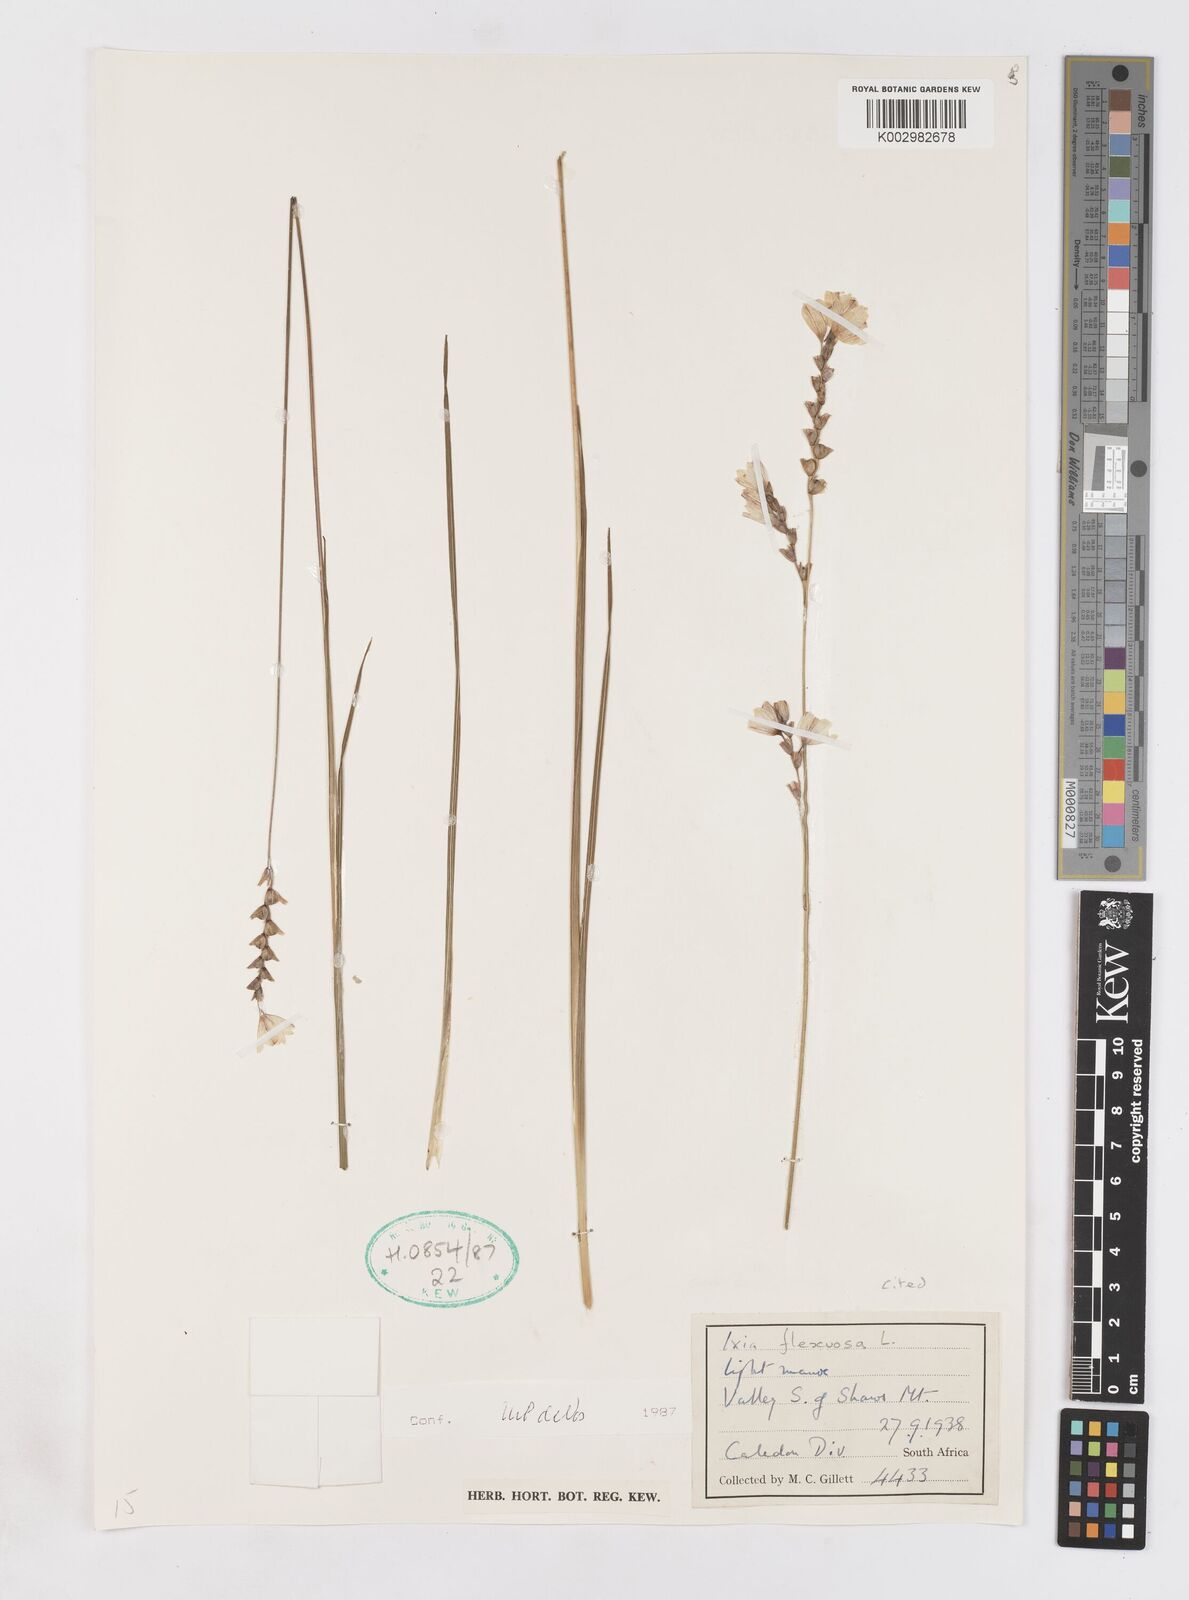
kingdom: Plantae
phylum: Tracheophyta
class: Liliopsida
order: Asparagales
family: Iridaceae
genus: Ixia
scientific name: Ixia flexuosa
